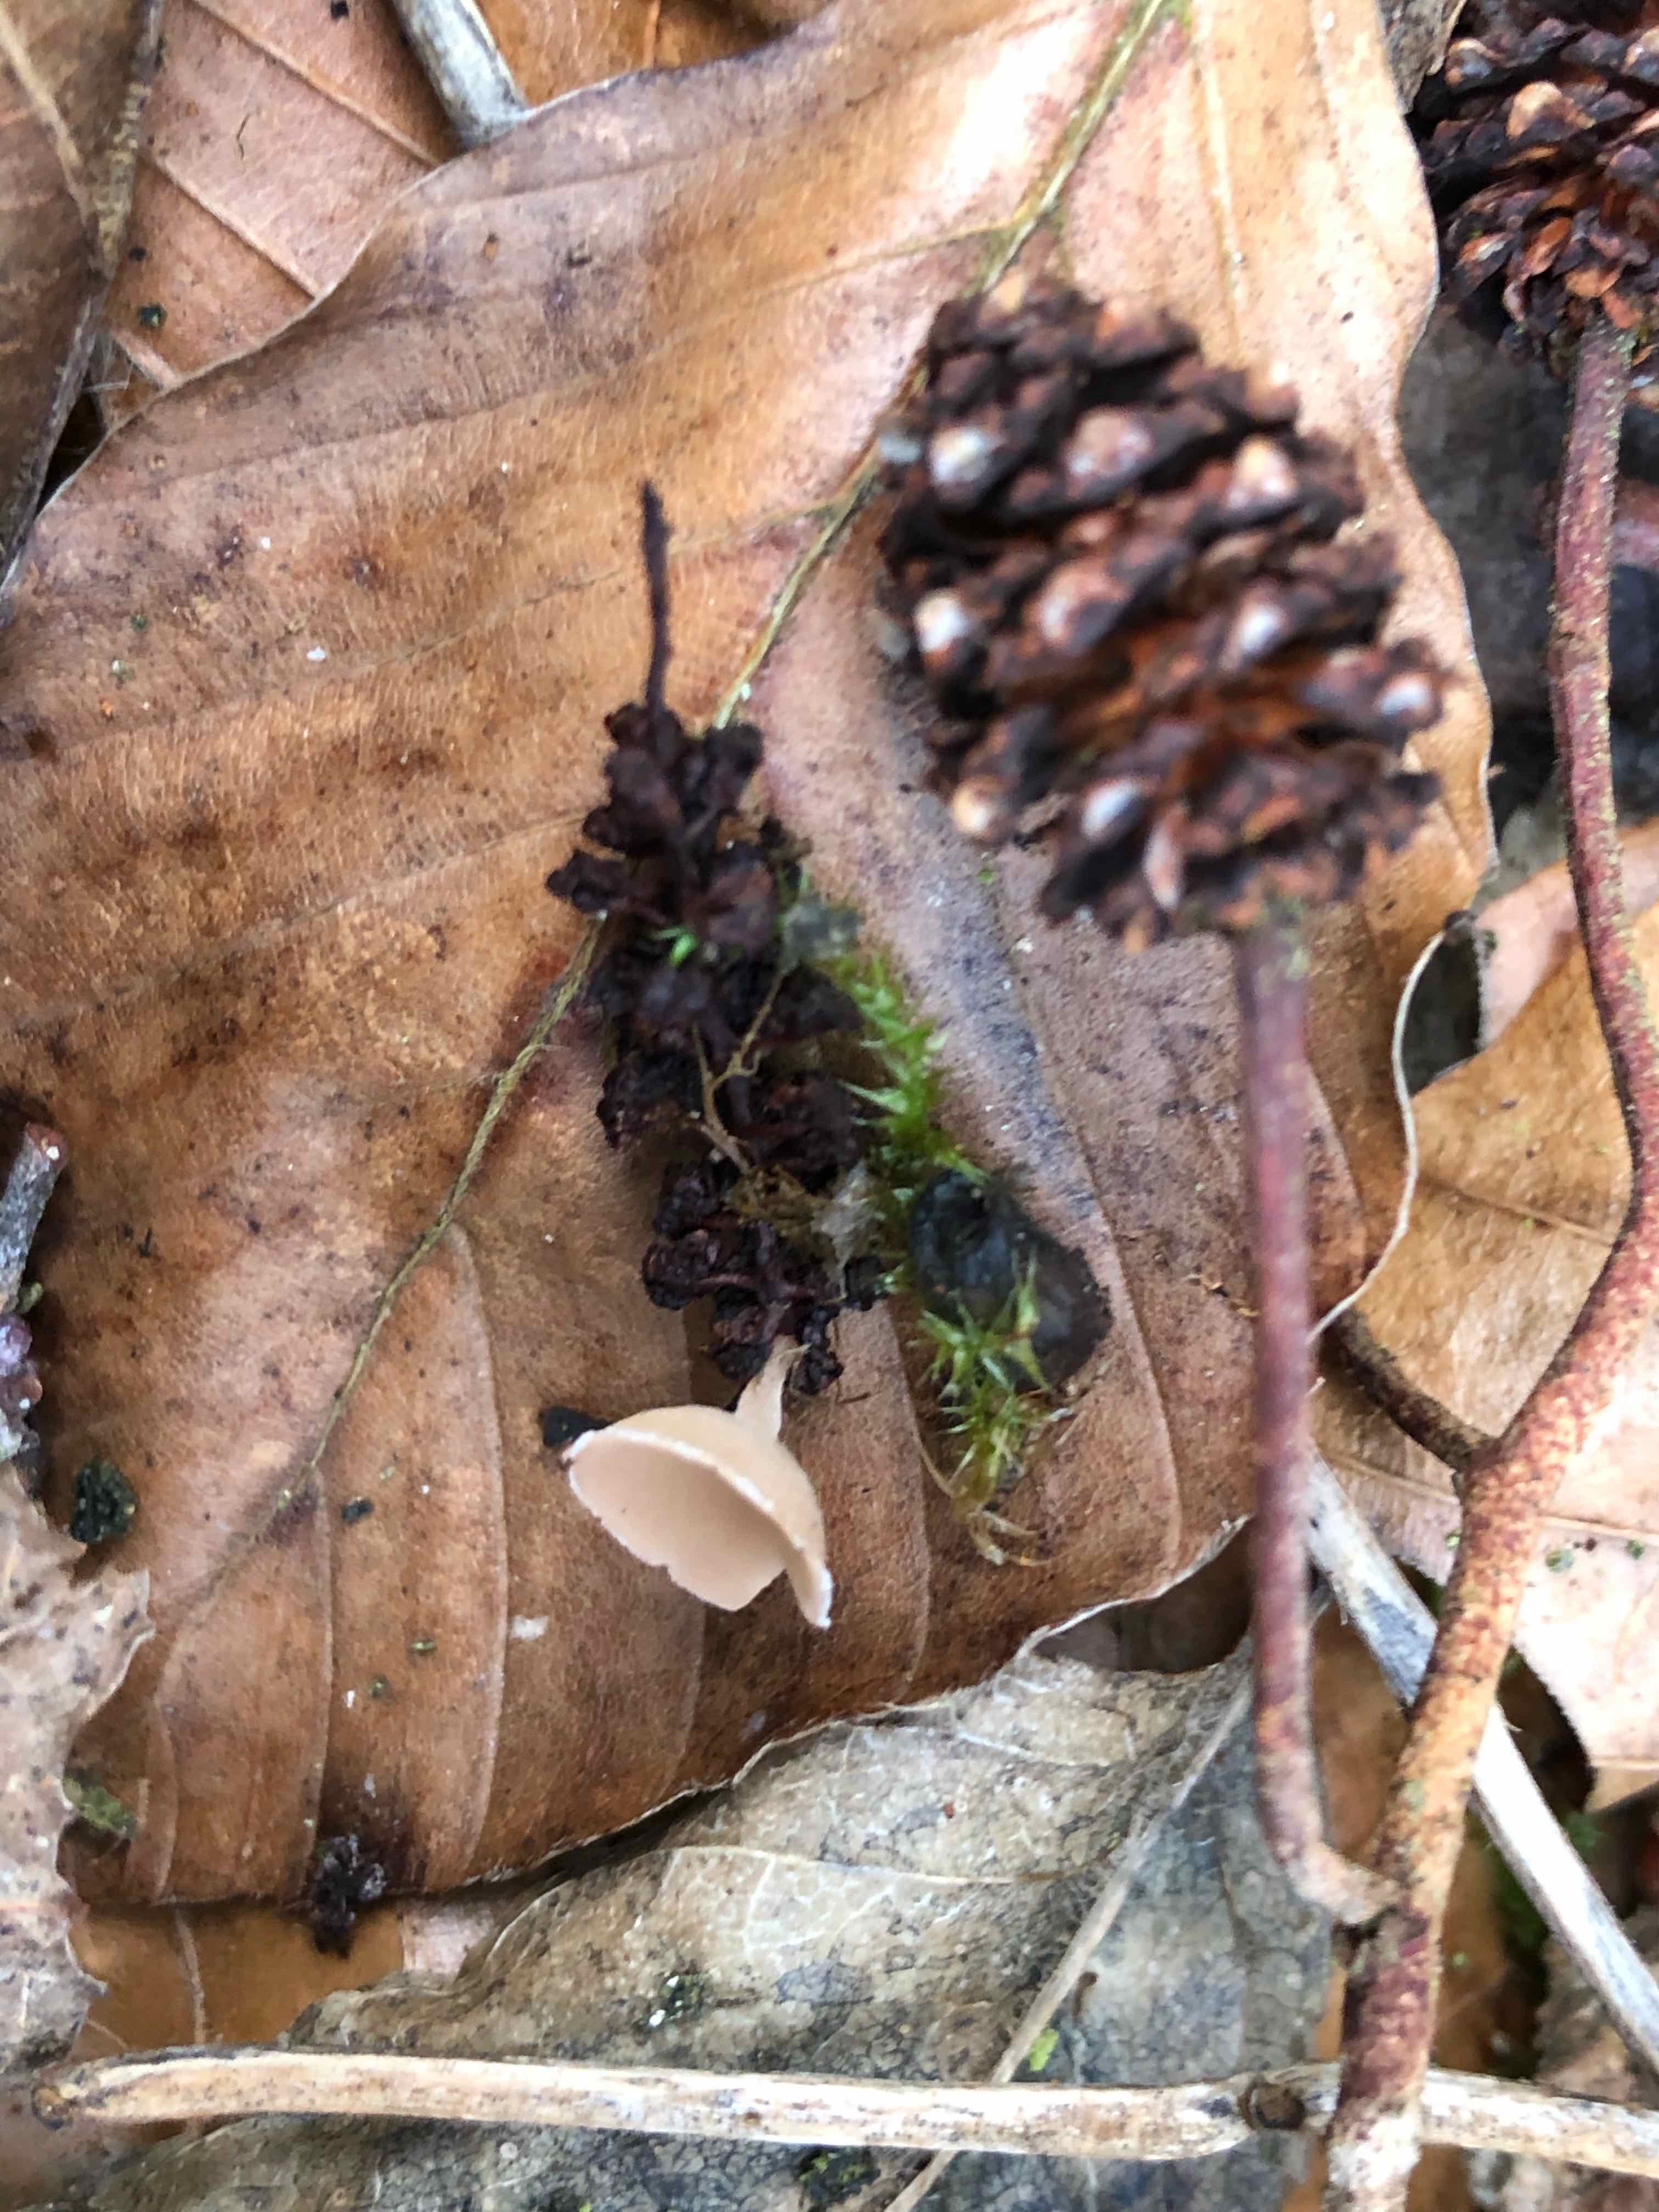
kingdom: Fungi
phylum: Ascomycota
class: Leotiomycetes
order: Helotiales
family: Sclerotiniaceae
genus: Ciboria
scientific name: Ciboria amentacea
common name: ellerakle-knoldskive
